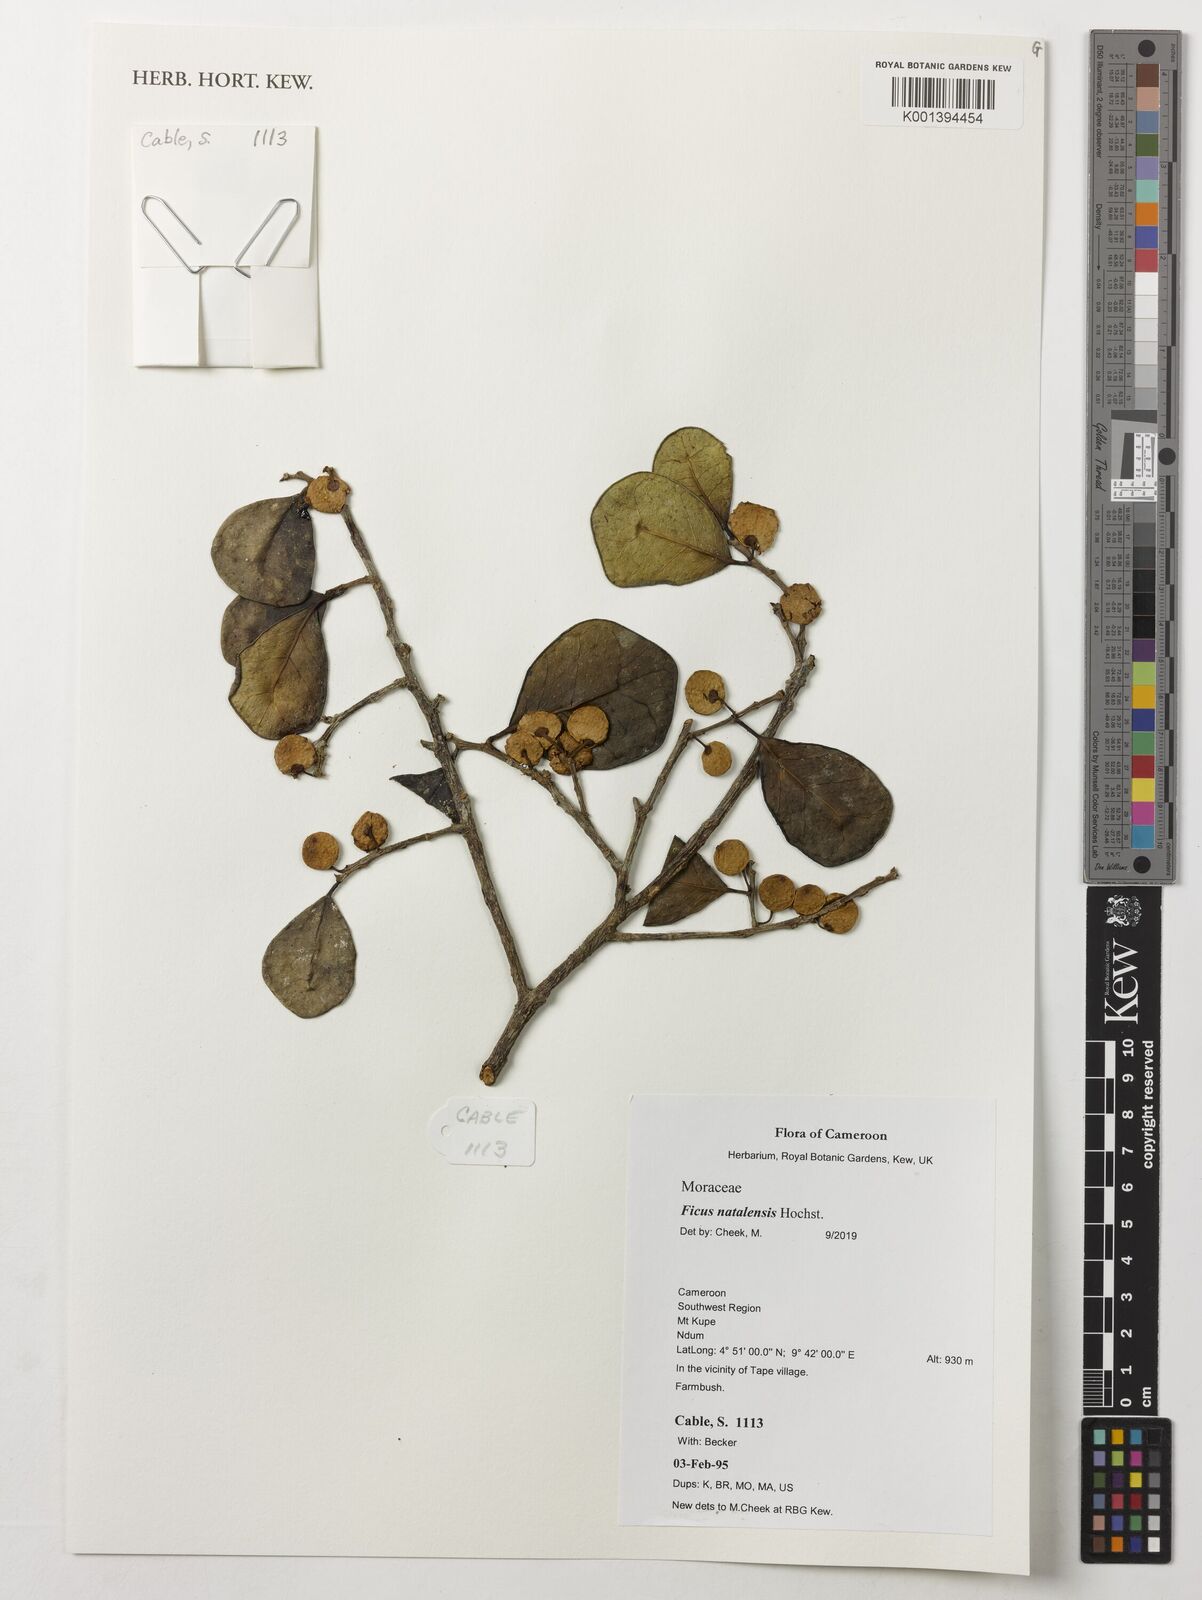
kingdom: Plantae
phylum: Tracheophyta
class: Magnoliopsida
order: Rosales
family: Moraceae
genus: Ficus
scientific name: Ficus natalensis
